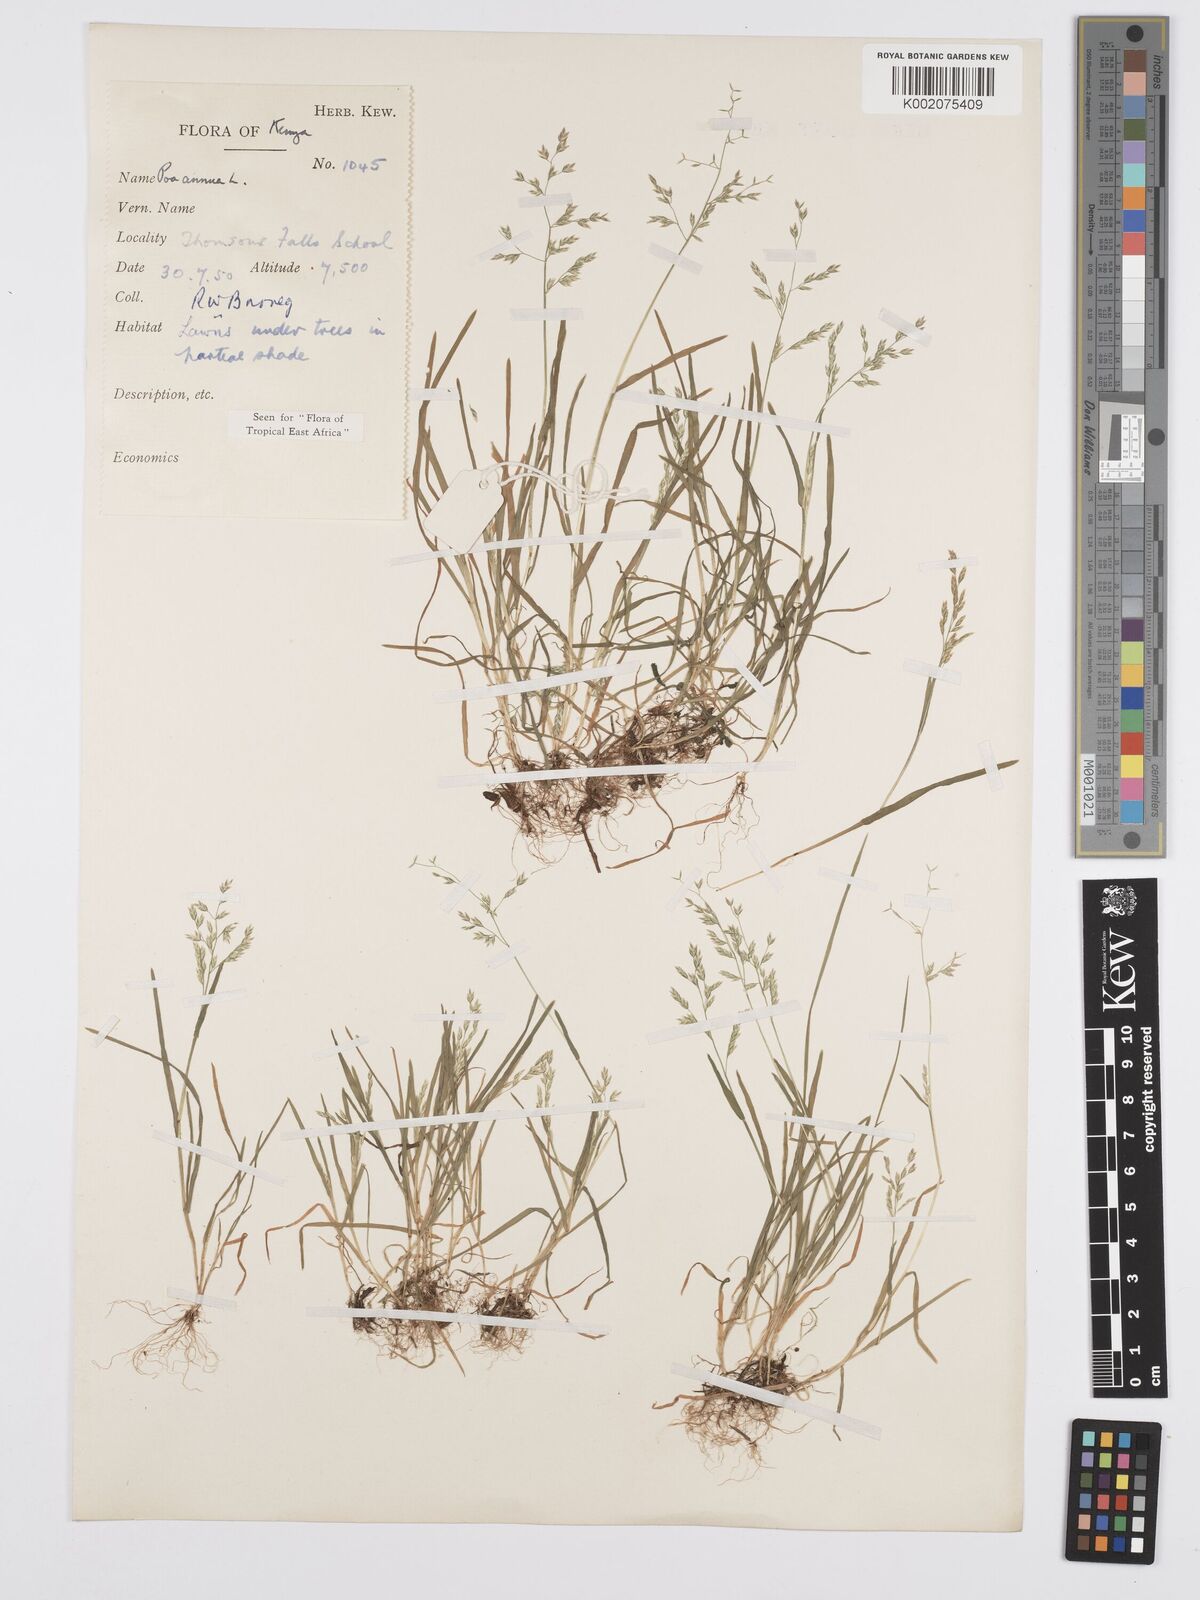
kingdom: Plantae
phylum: Tracheophyta
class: Liliopsida
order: Poales
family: Poaceae
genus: Poa
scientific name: Poa annua
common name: Annual bluegrass
